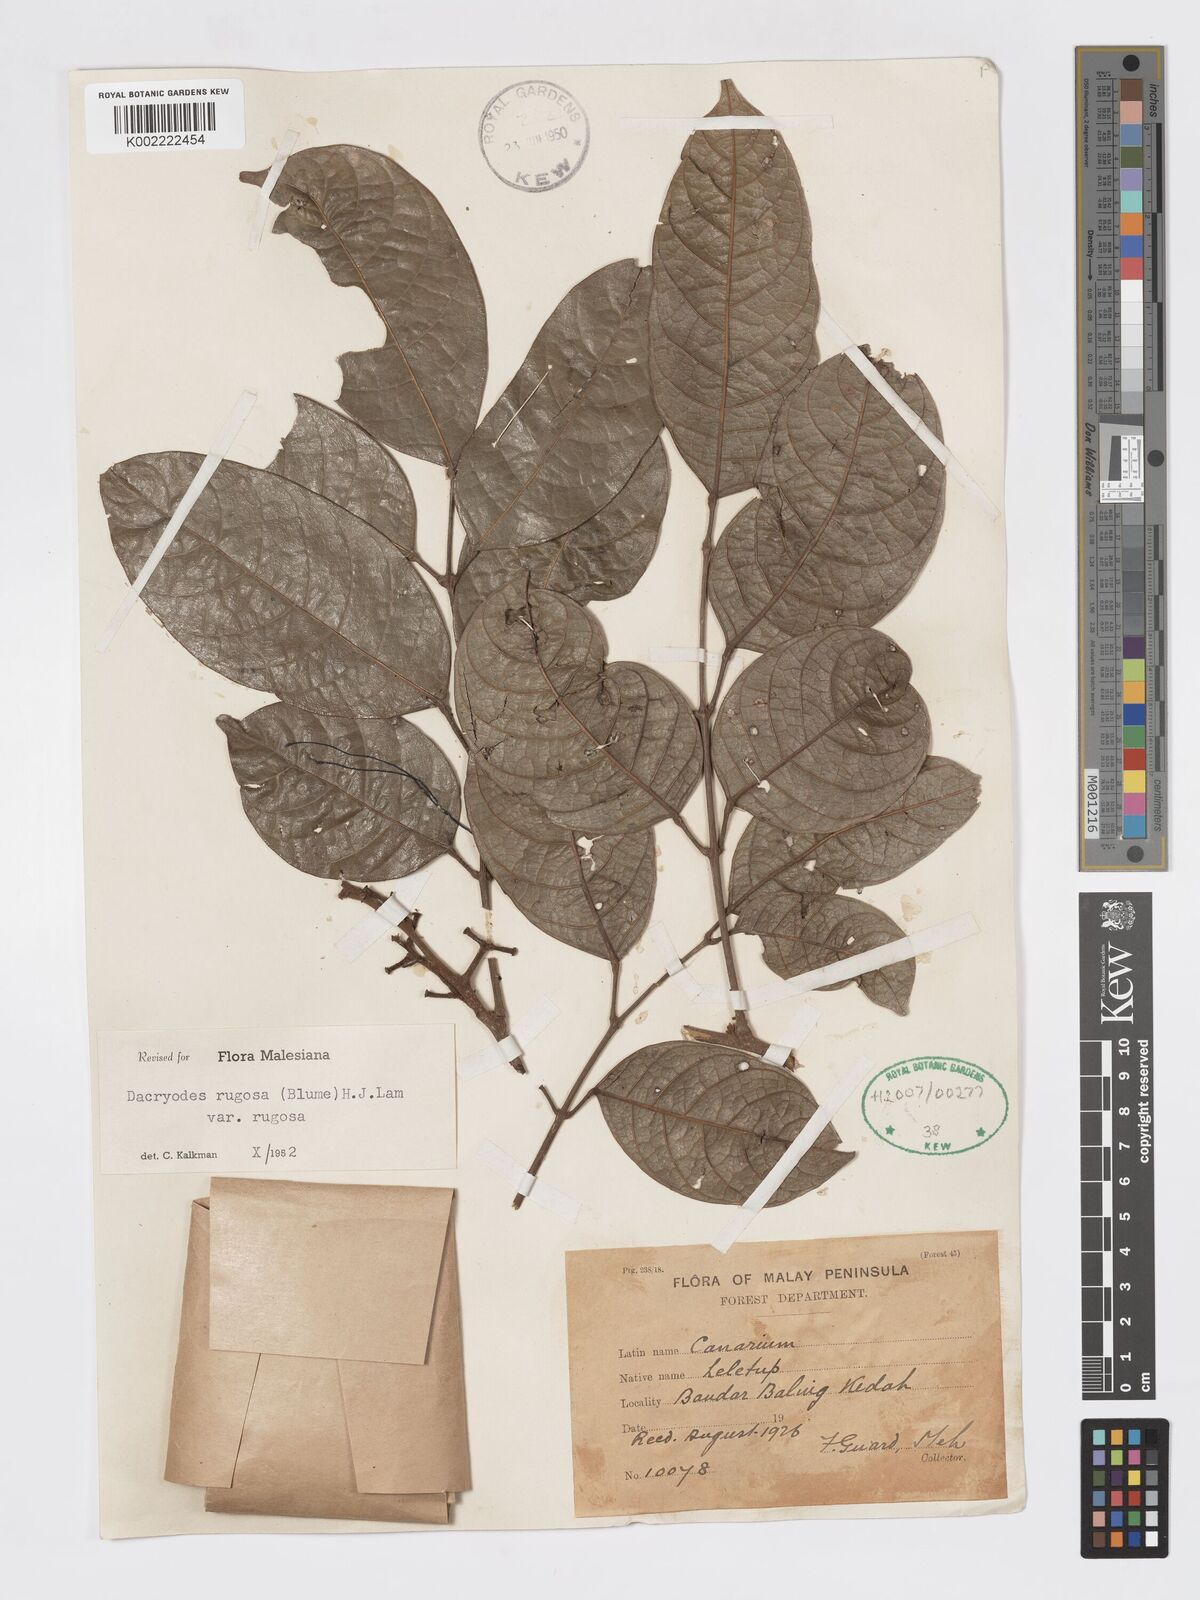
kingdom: Plantae
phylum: Tracheophyta
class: Magnoliopsida
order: Sapindales
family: Burseraceae
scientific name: Burseraceae
